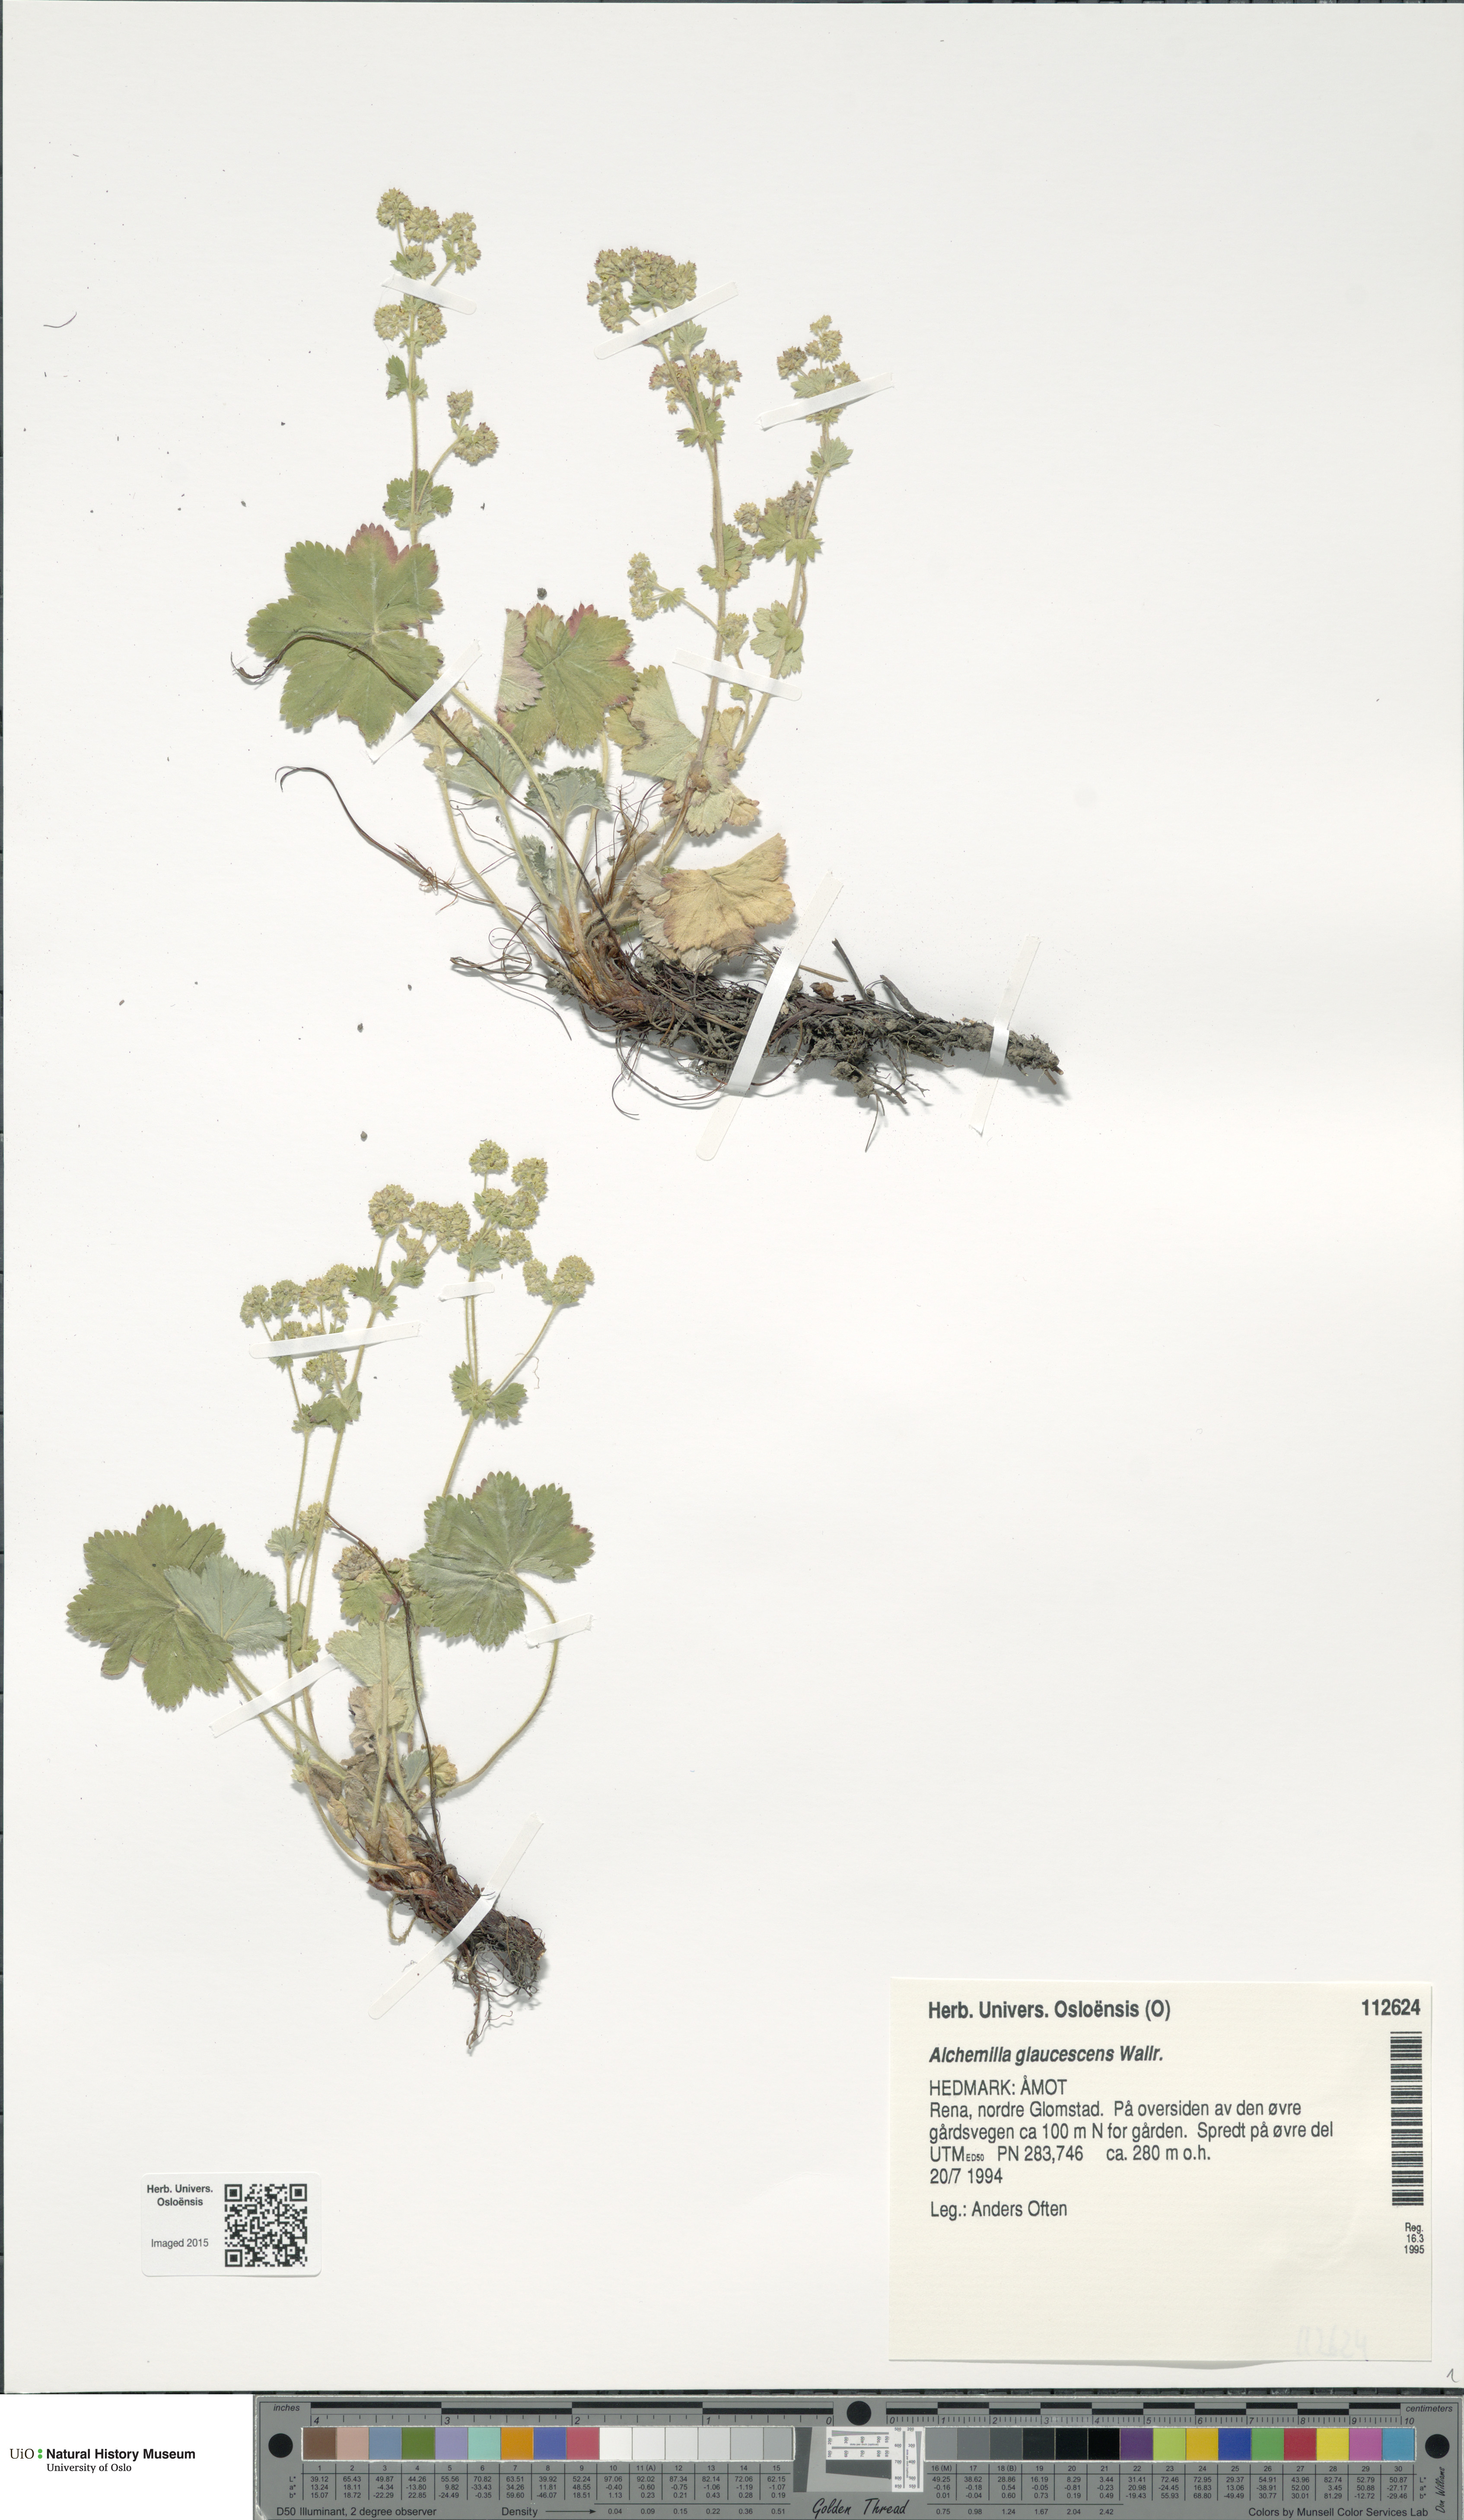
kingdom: Plantae
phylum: Tracheophyta
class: Magnoliopsida
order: Rosales
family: Rosaceae
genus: Alchemilla
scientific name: Alchemilla glaucescens
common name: Silky lady's mantle
